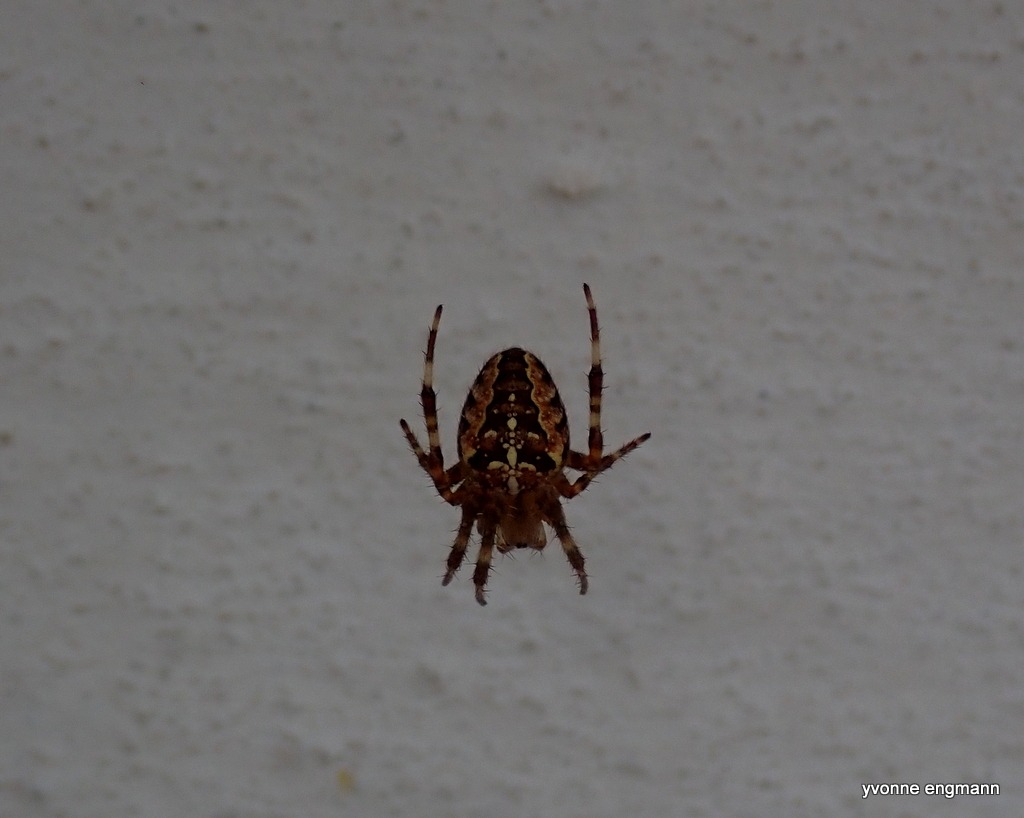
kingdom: Animalia
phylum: Arthropoda
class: Arachnida
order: Araneae
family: Araneidae
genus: Araneus
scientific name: Araneus diadematus
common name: Korsedderkop
